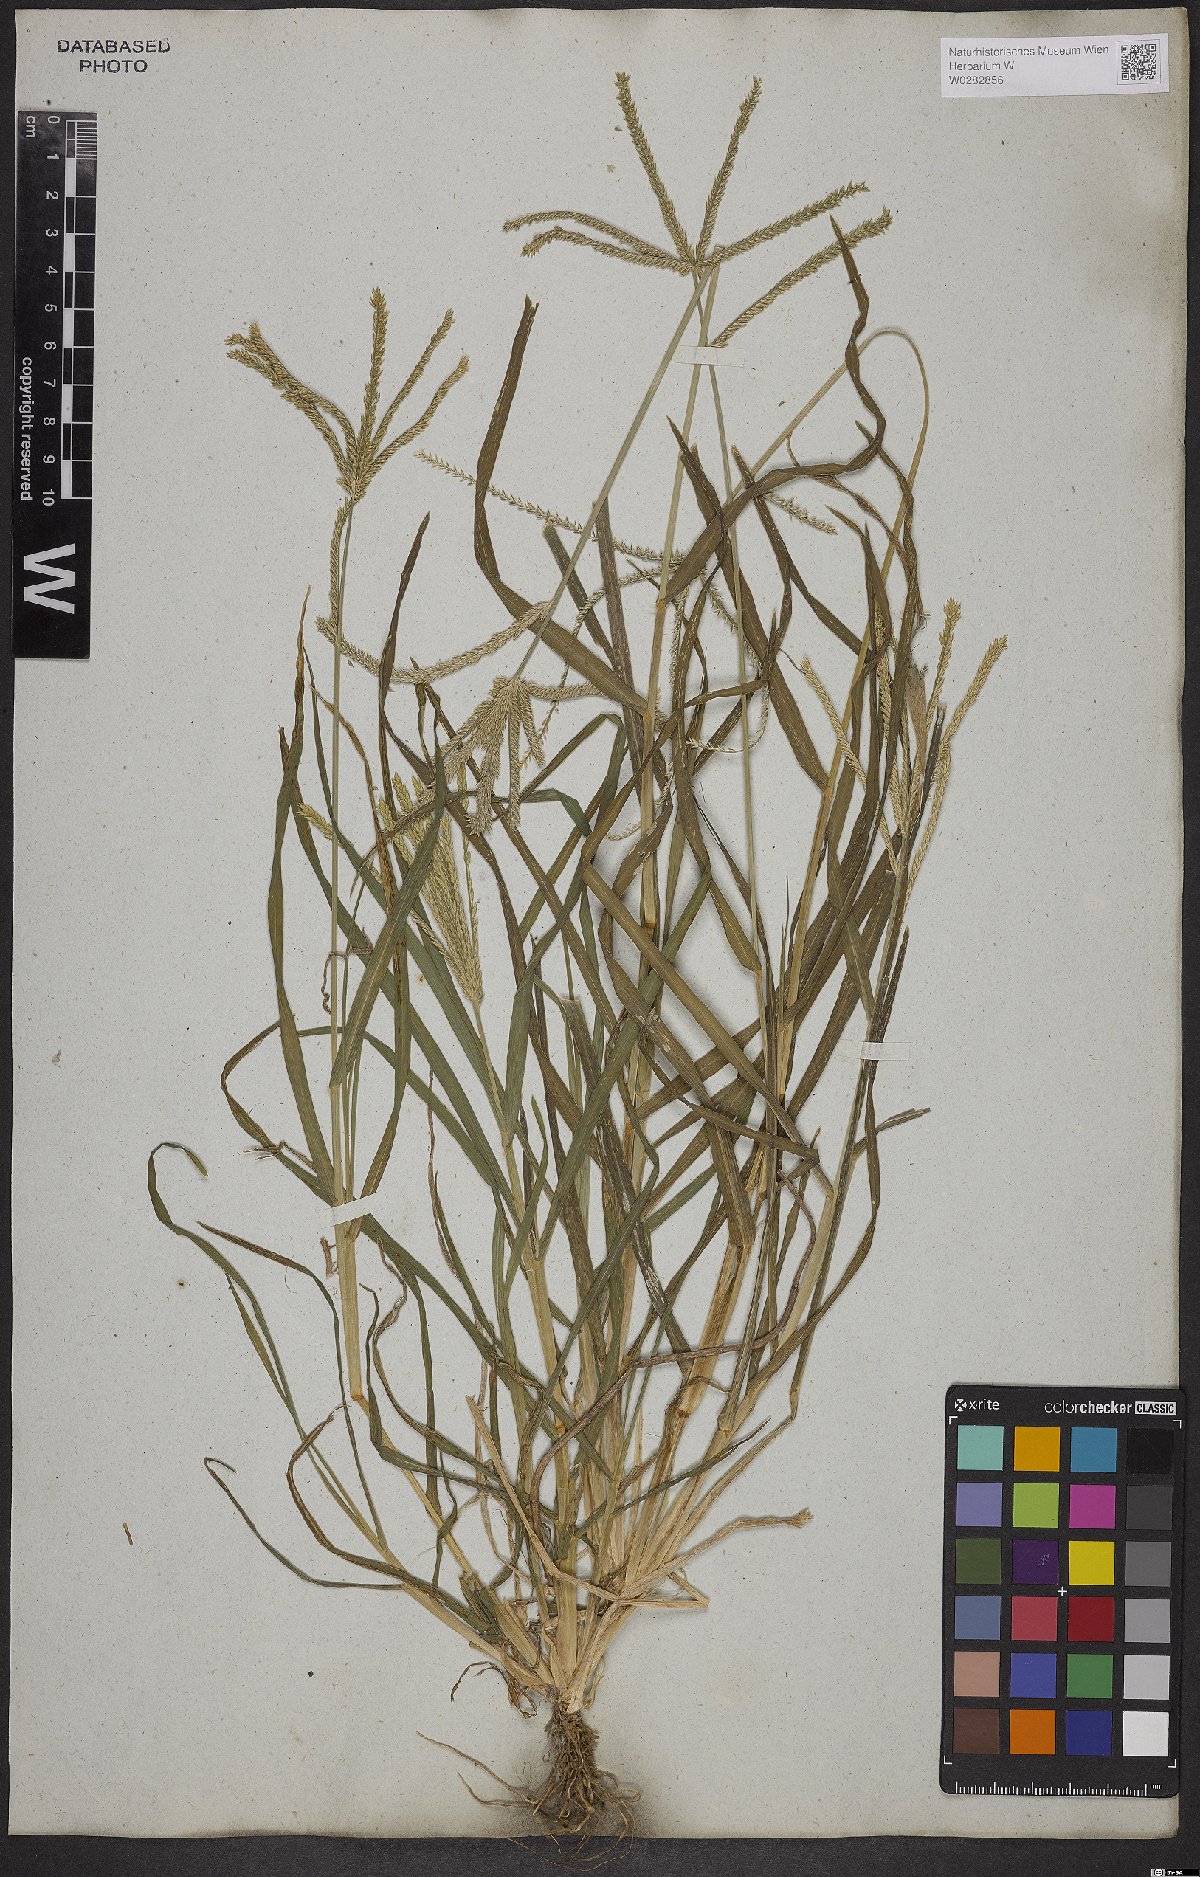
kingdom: Plantae
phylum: Tracheophyta
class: Liliopsida
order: Poales
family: Poaceae
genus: Eleusine
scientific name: Eleusine indica
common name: Yard-grass
